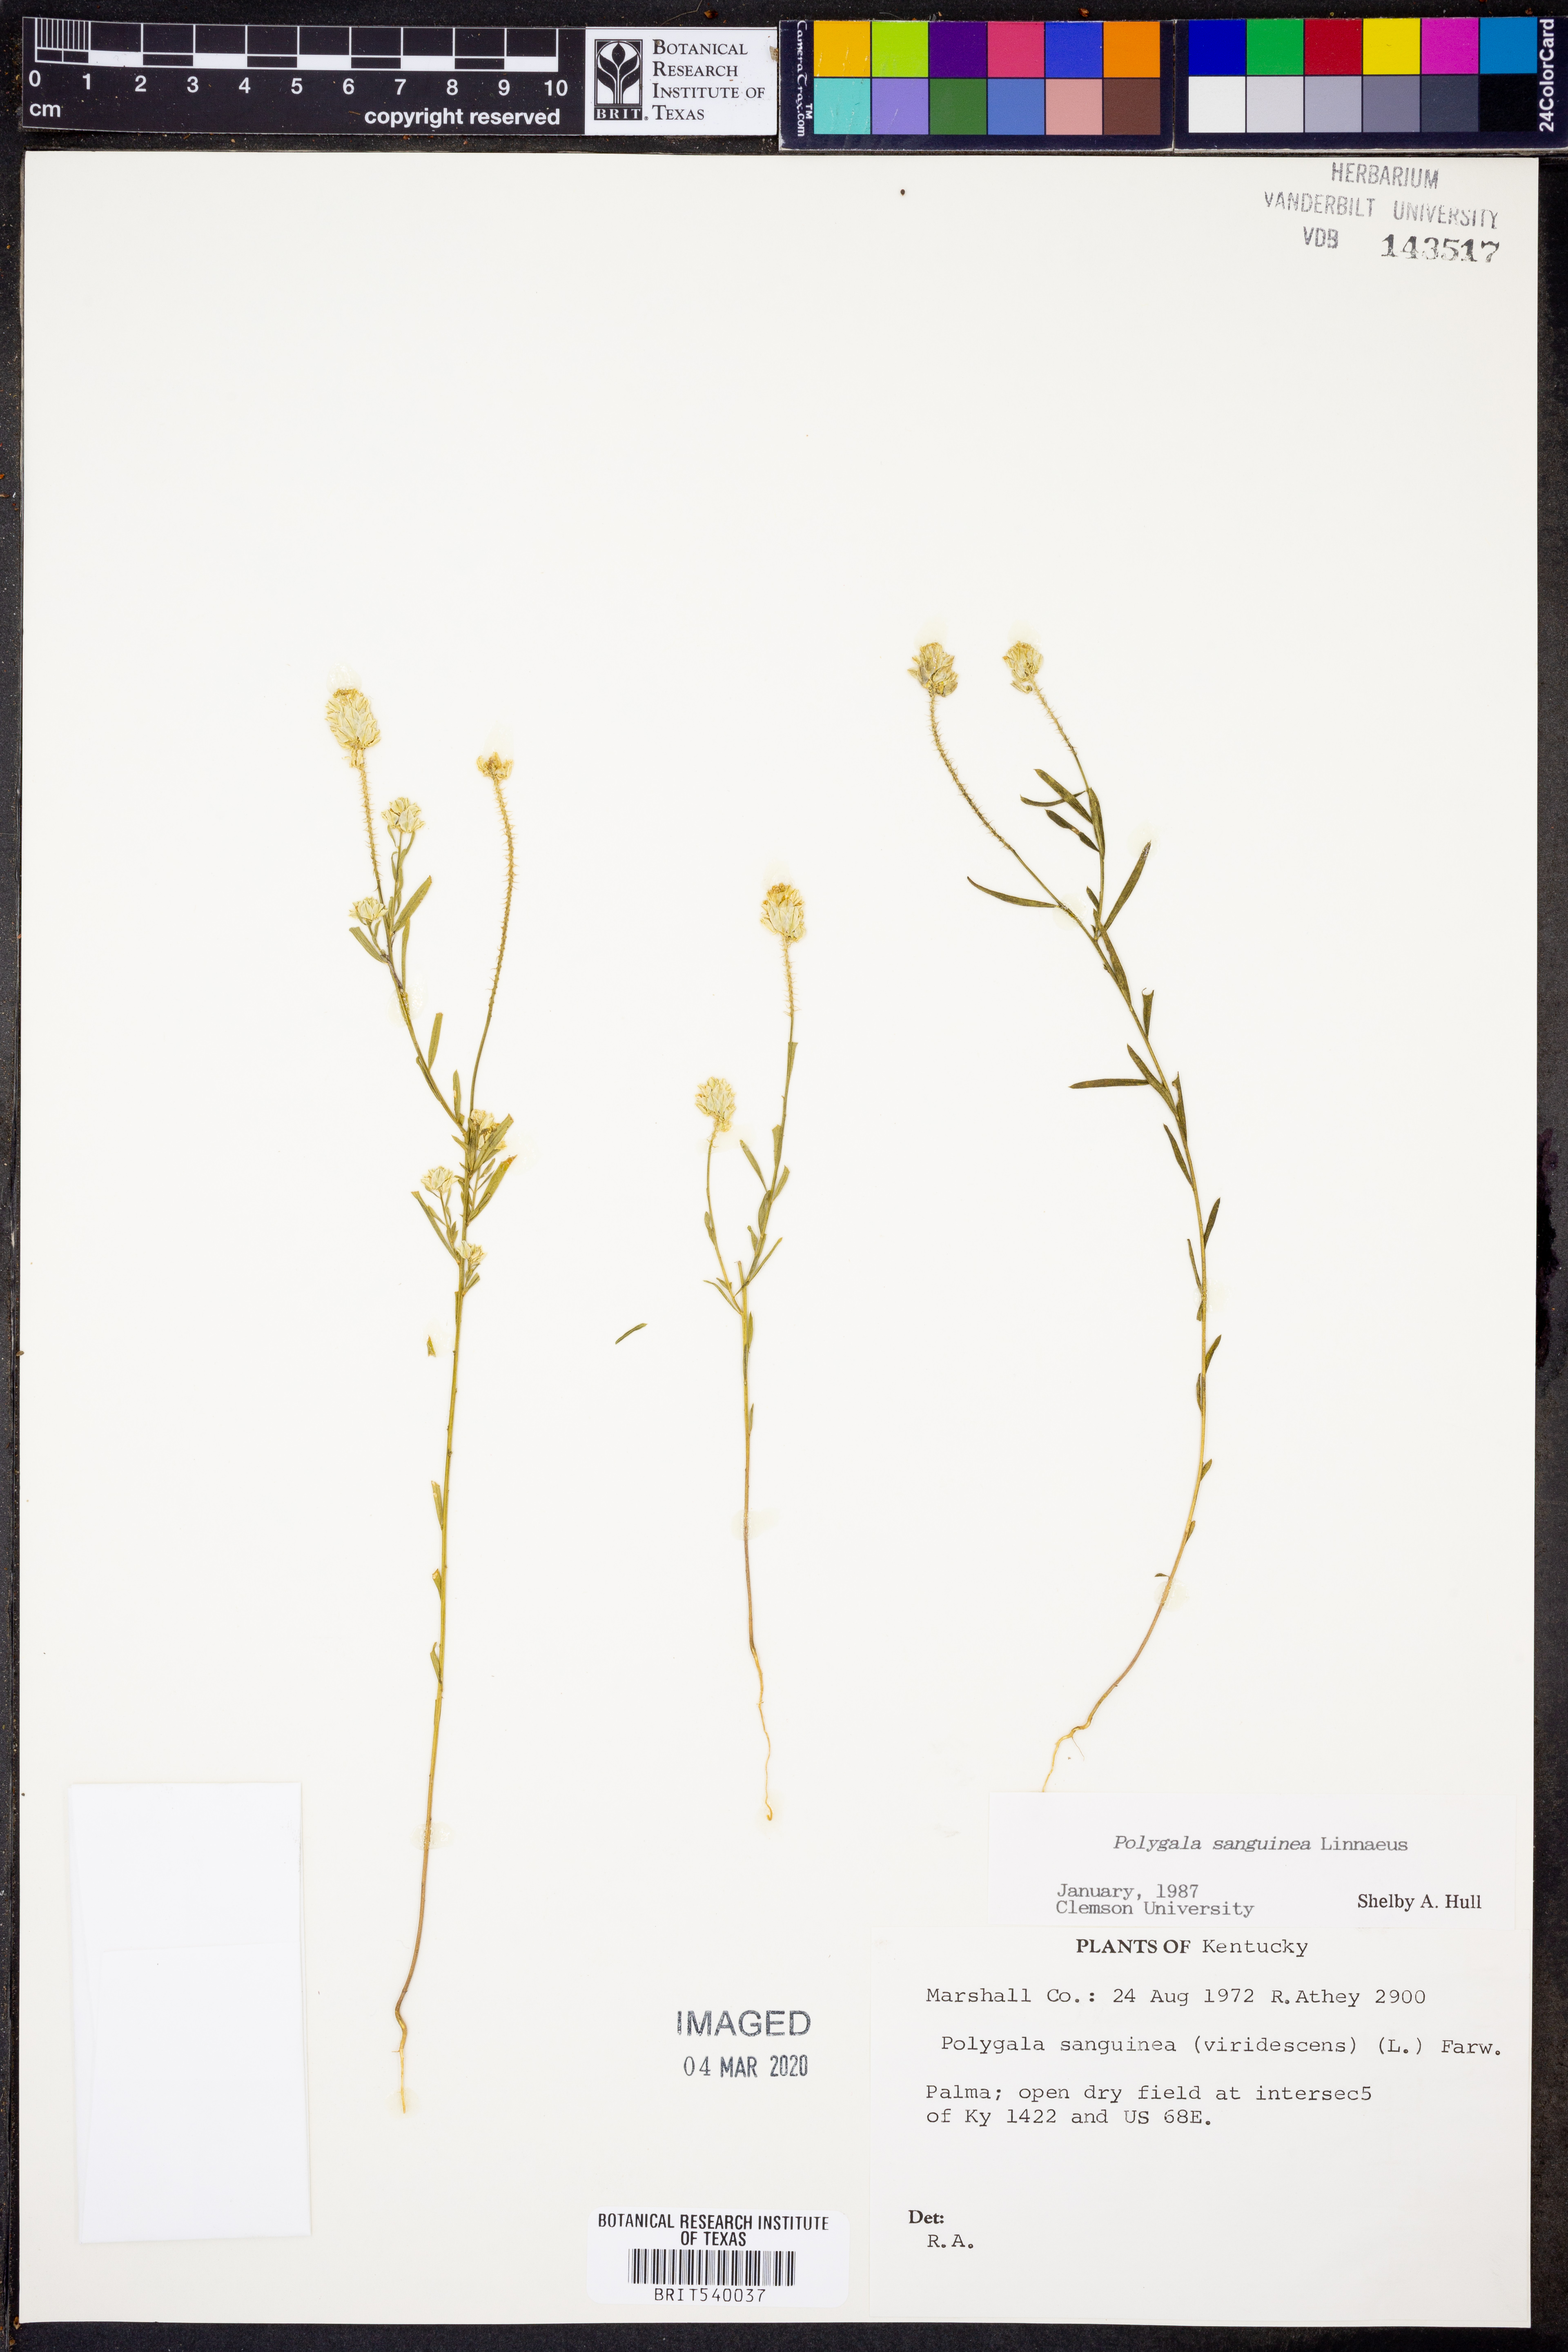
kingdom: Plantae
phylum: Tracheophyta
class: Magnoliopsida
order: Fabales
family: Polygalaceae
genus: Polygala
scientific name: Polygala sanguinea
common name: Blood milkwort
